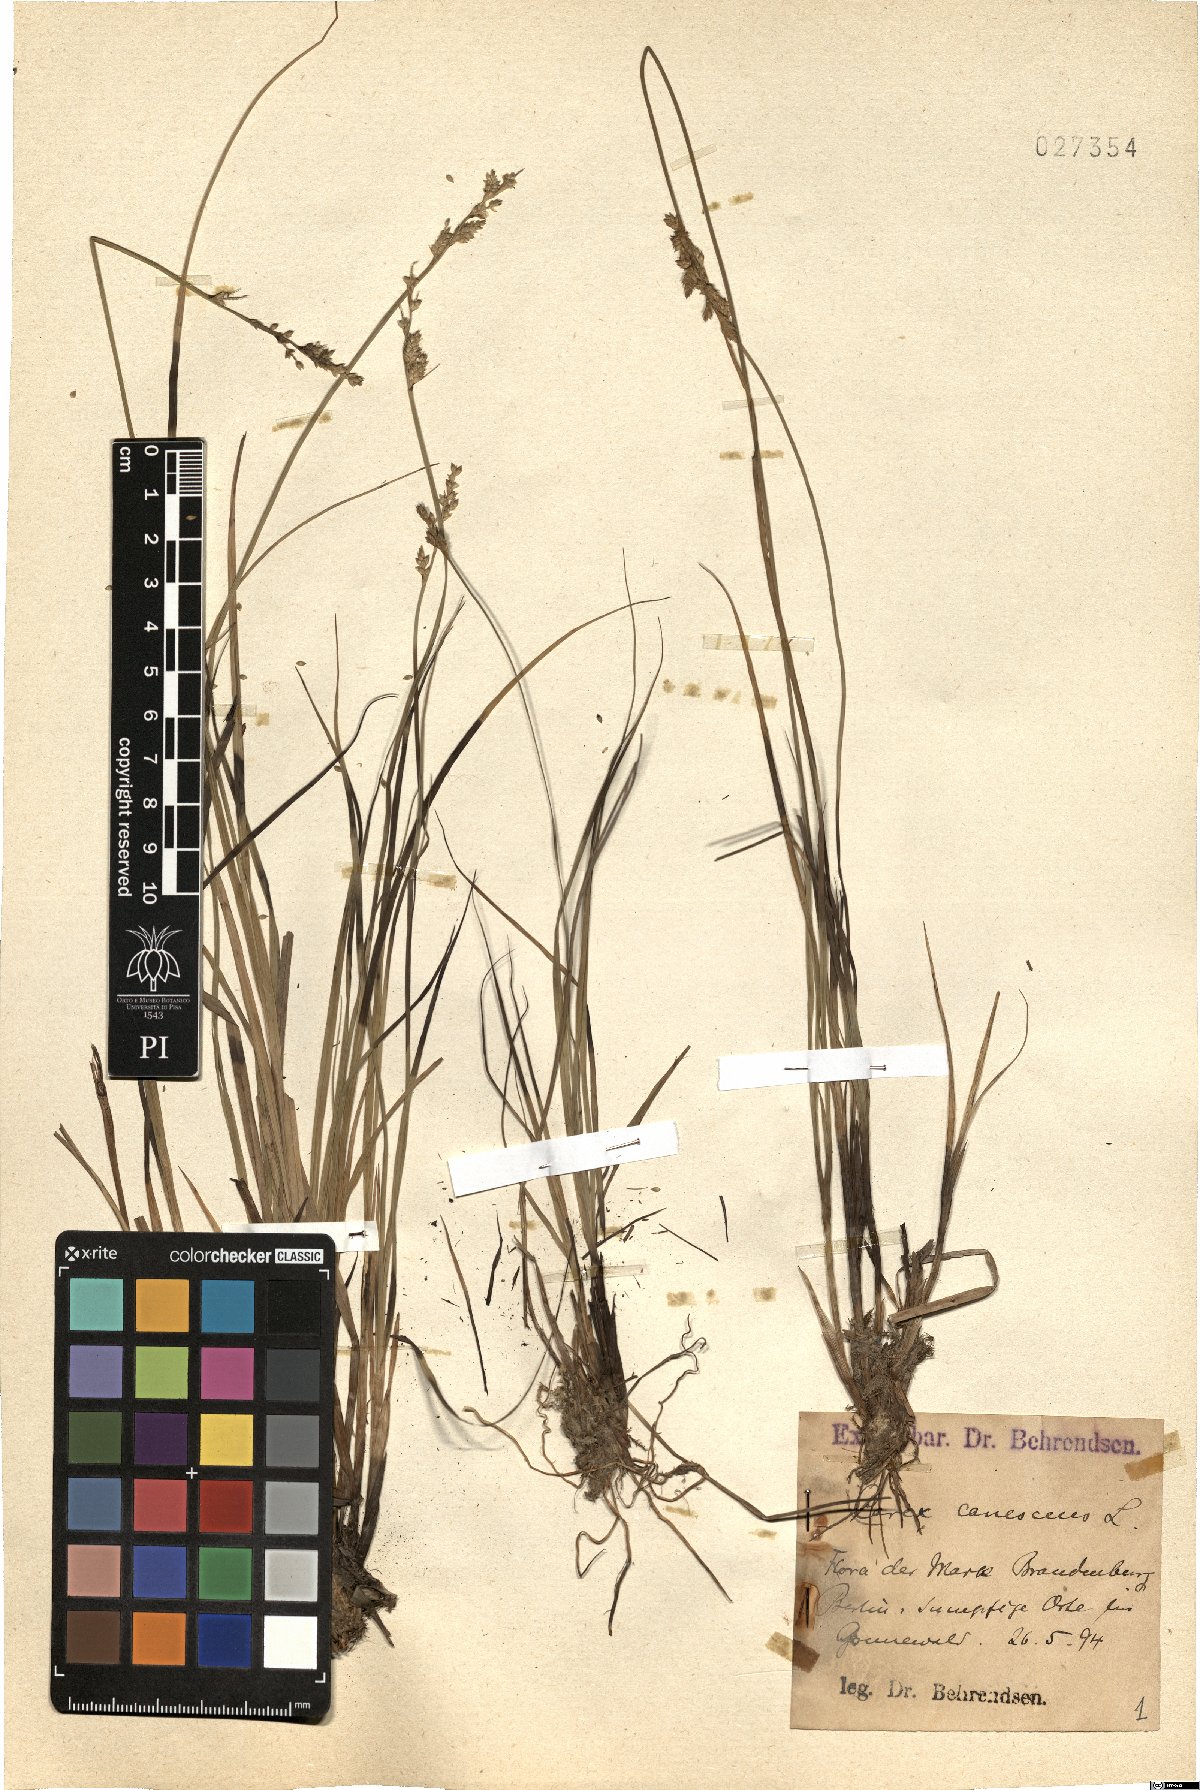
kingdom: Plantae
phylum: Tracheophyta
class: Liliopsida
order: Poales
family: Cyperaceae
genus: Carex
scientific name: Carex canescens
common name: White sedge
